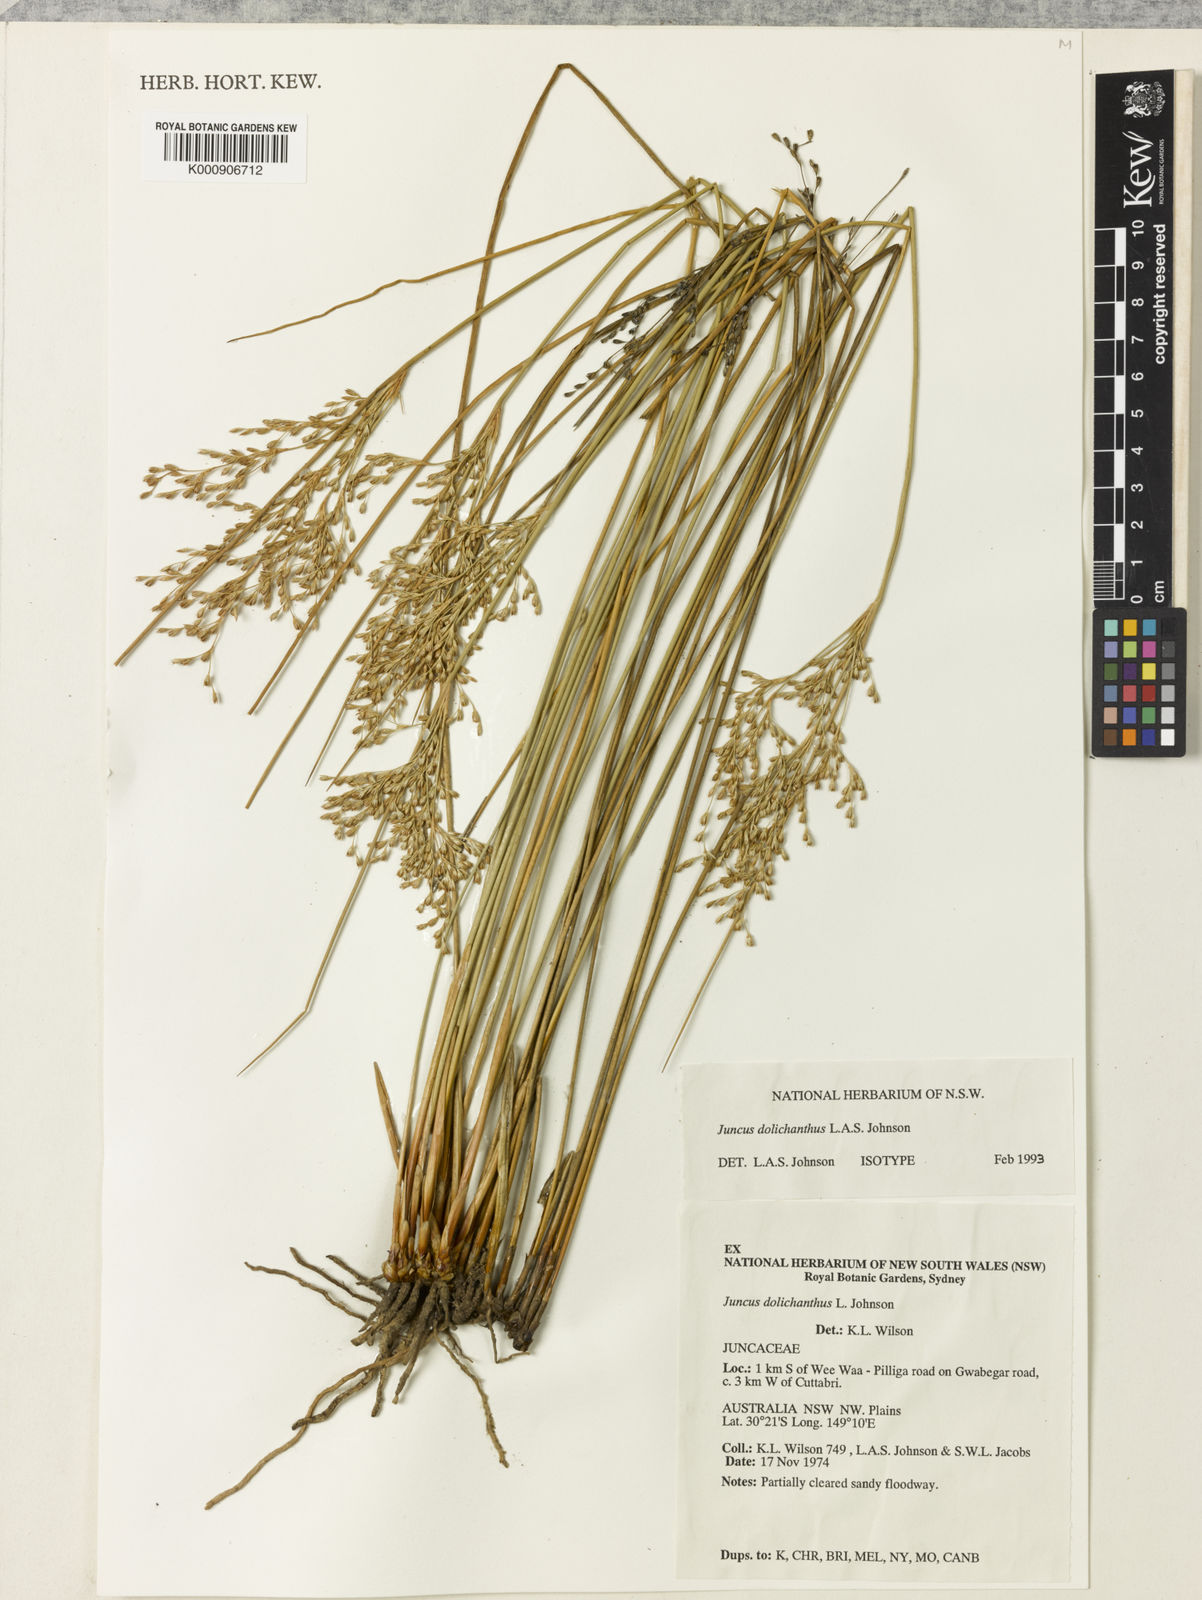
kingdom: Plantae
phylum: Tracheophyta
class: Liliopsida
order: Poales
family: Juncaceae
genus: Juncus
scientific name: Juncus dolichanthus
